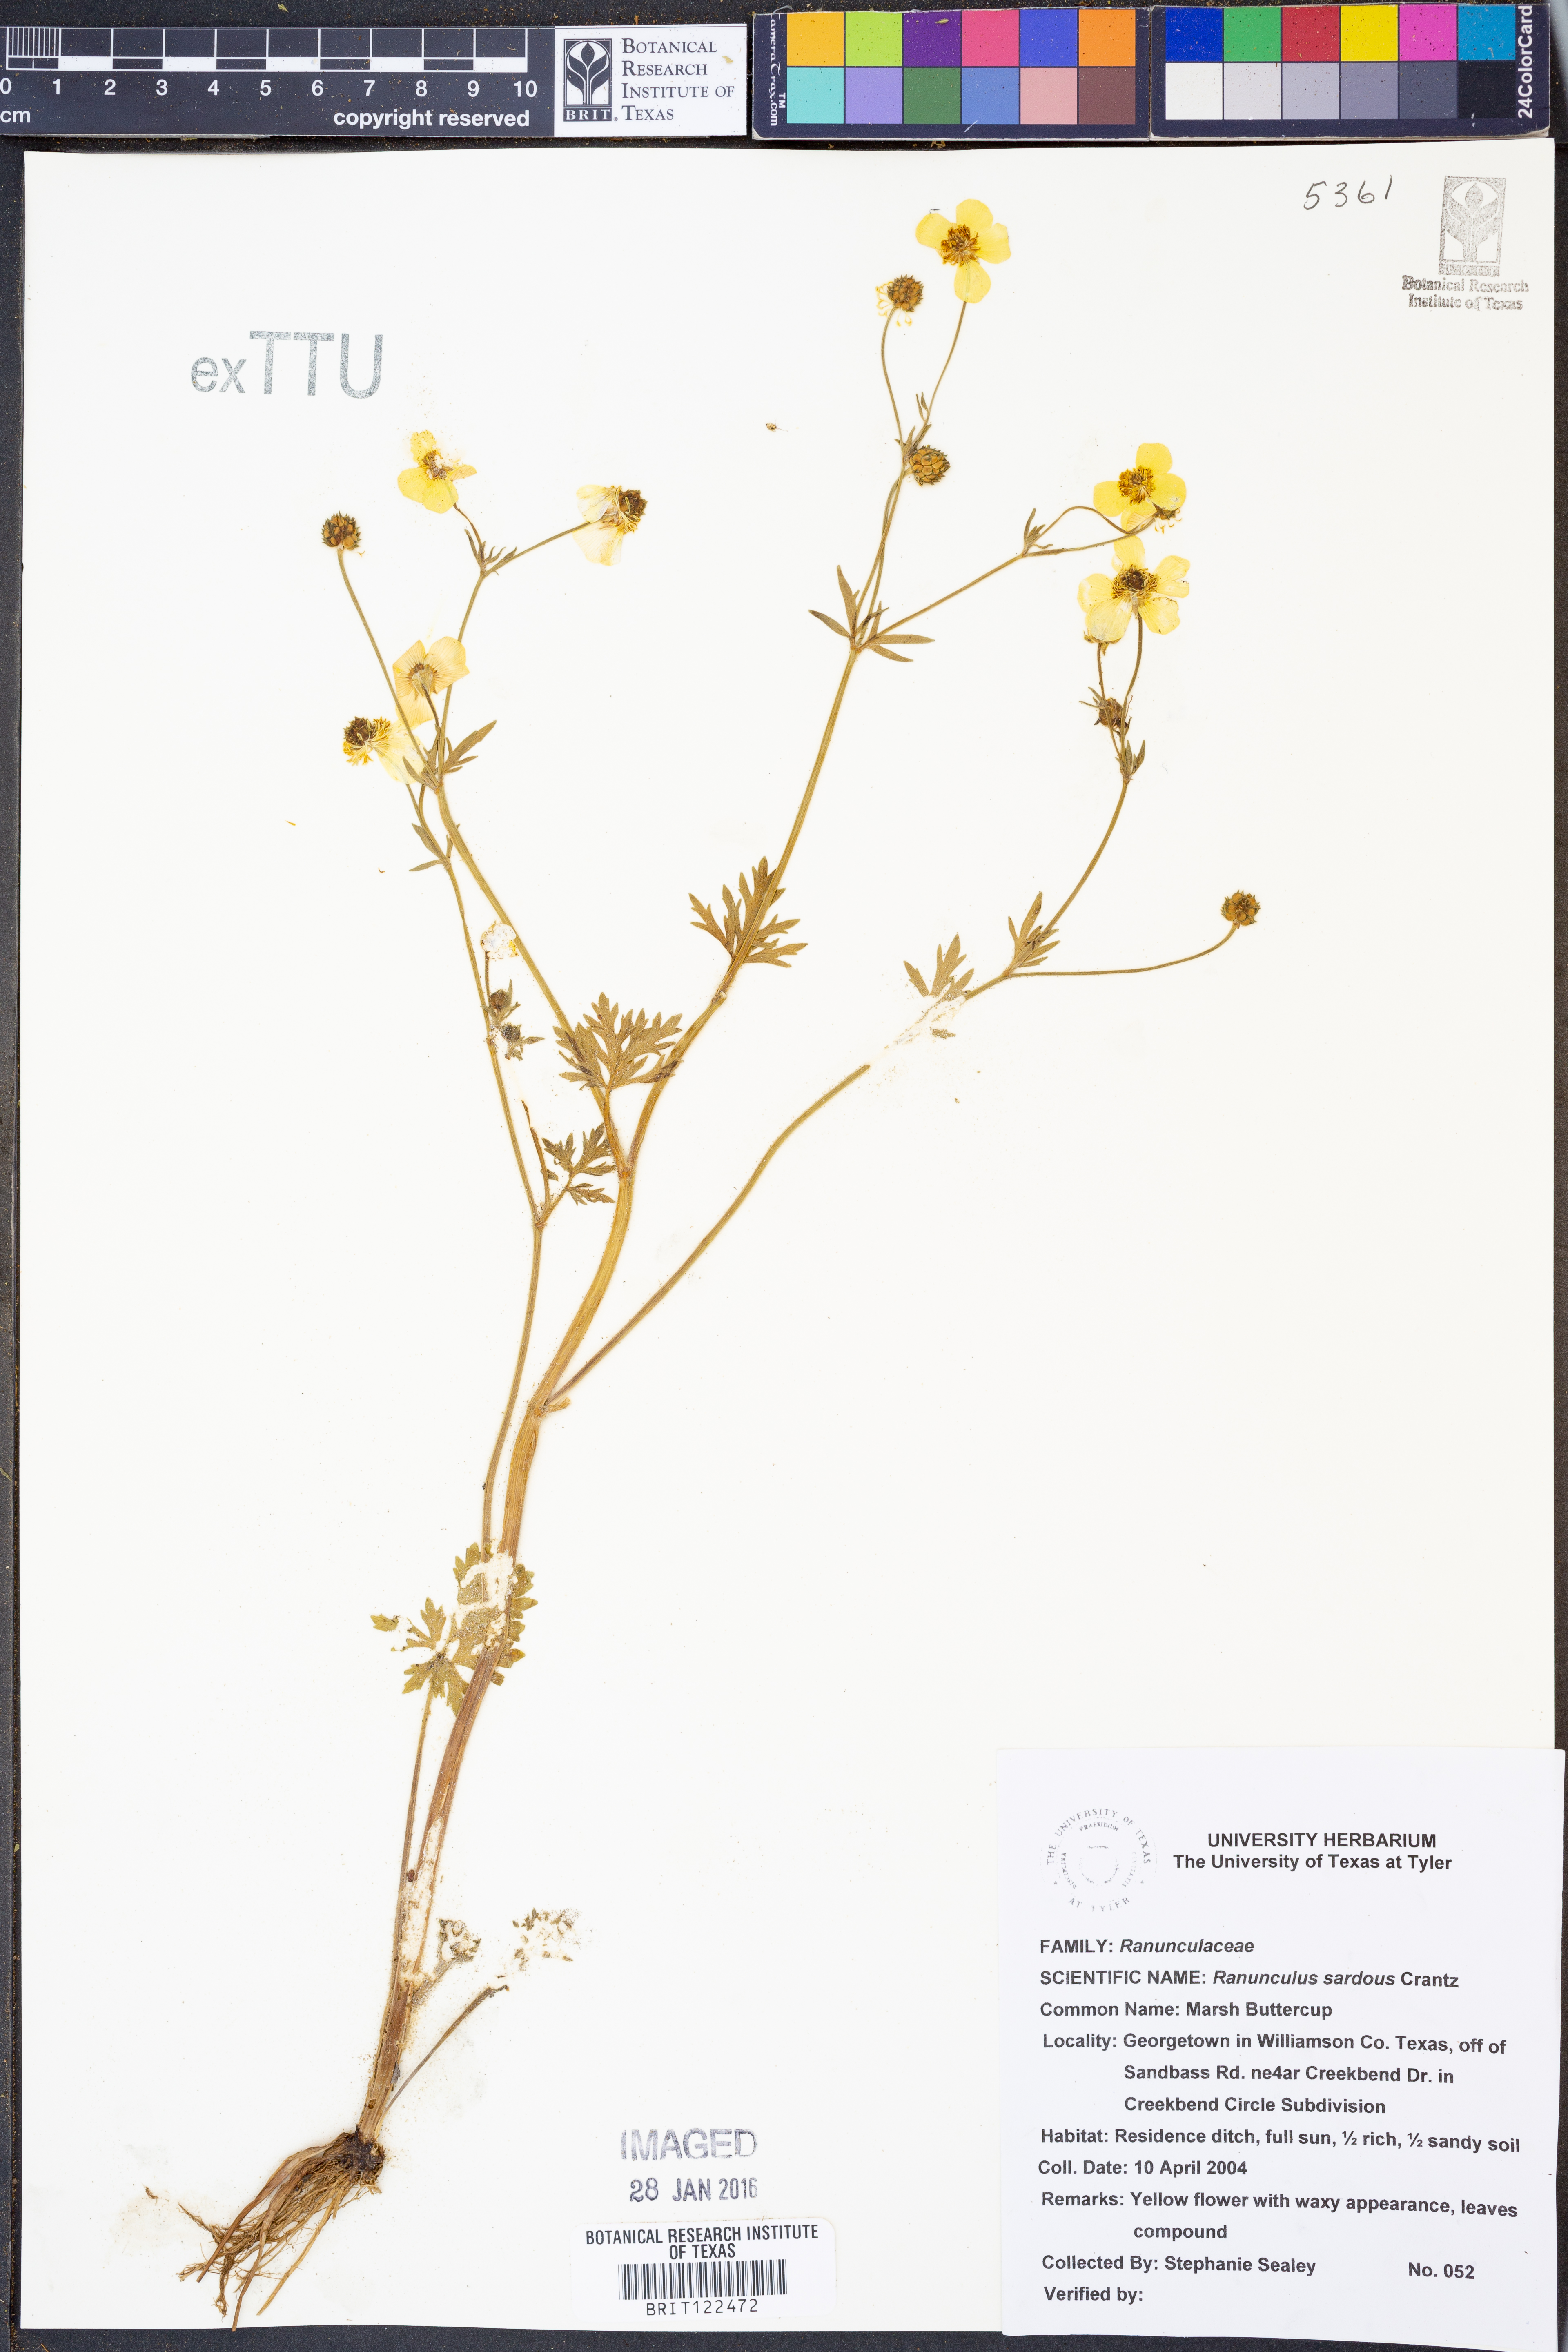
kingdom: Plantae
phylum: Tracheophyta
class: Magnoliopsida
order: Ranunculales
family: Ranunculaceae
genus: Ranunculus
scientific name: Ranunculus sardous
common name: Hairy buttercup
